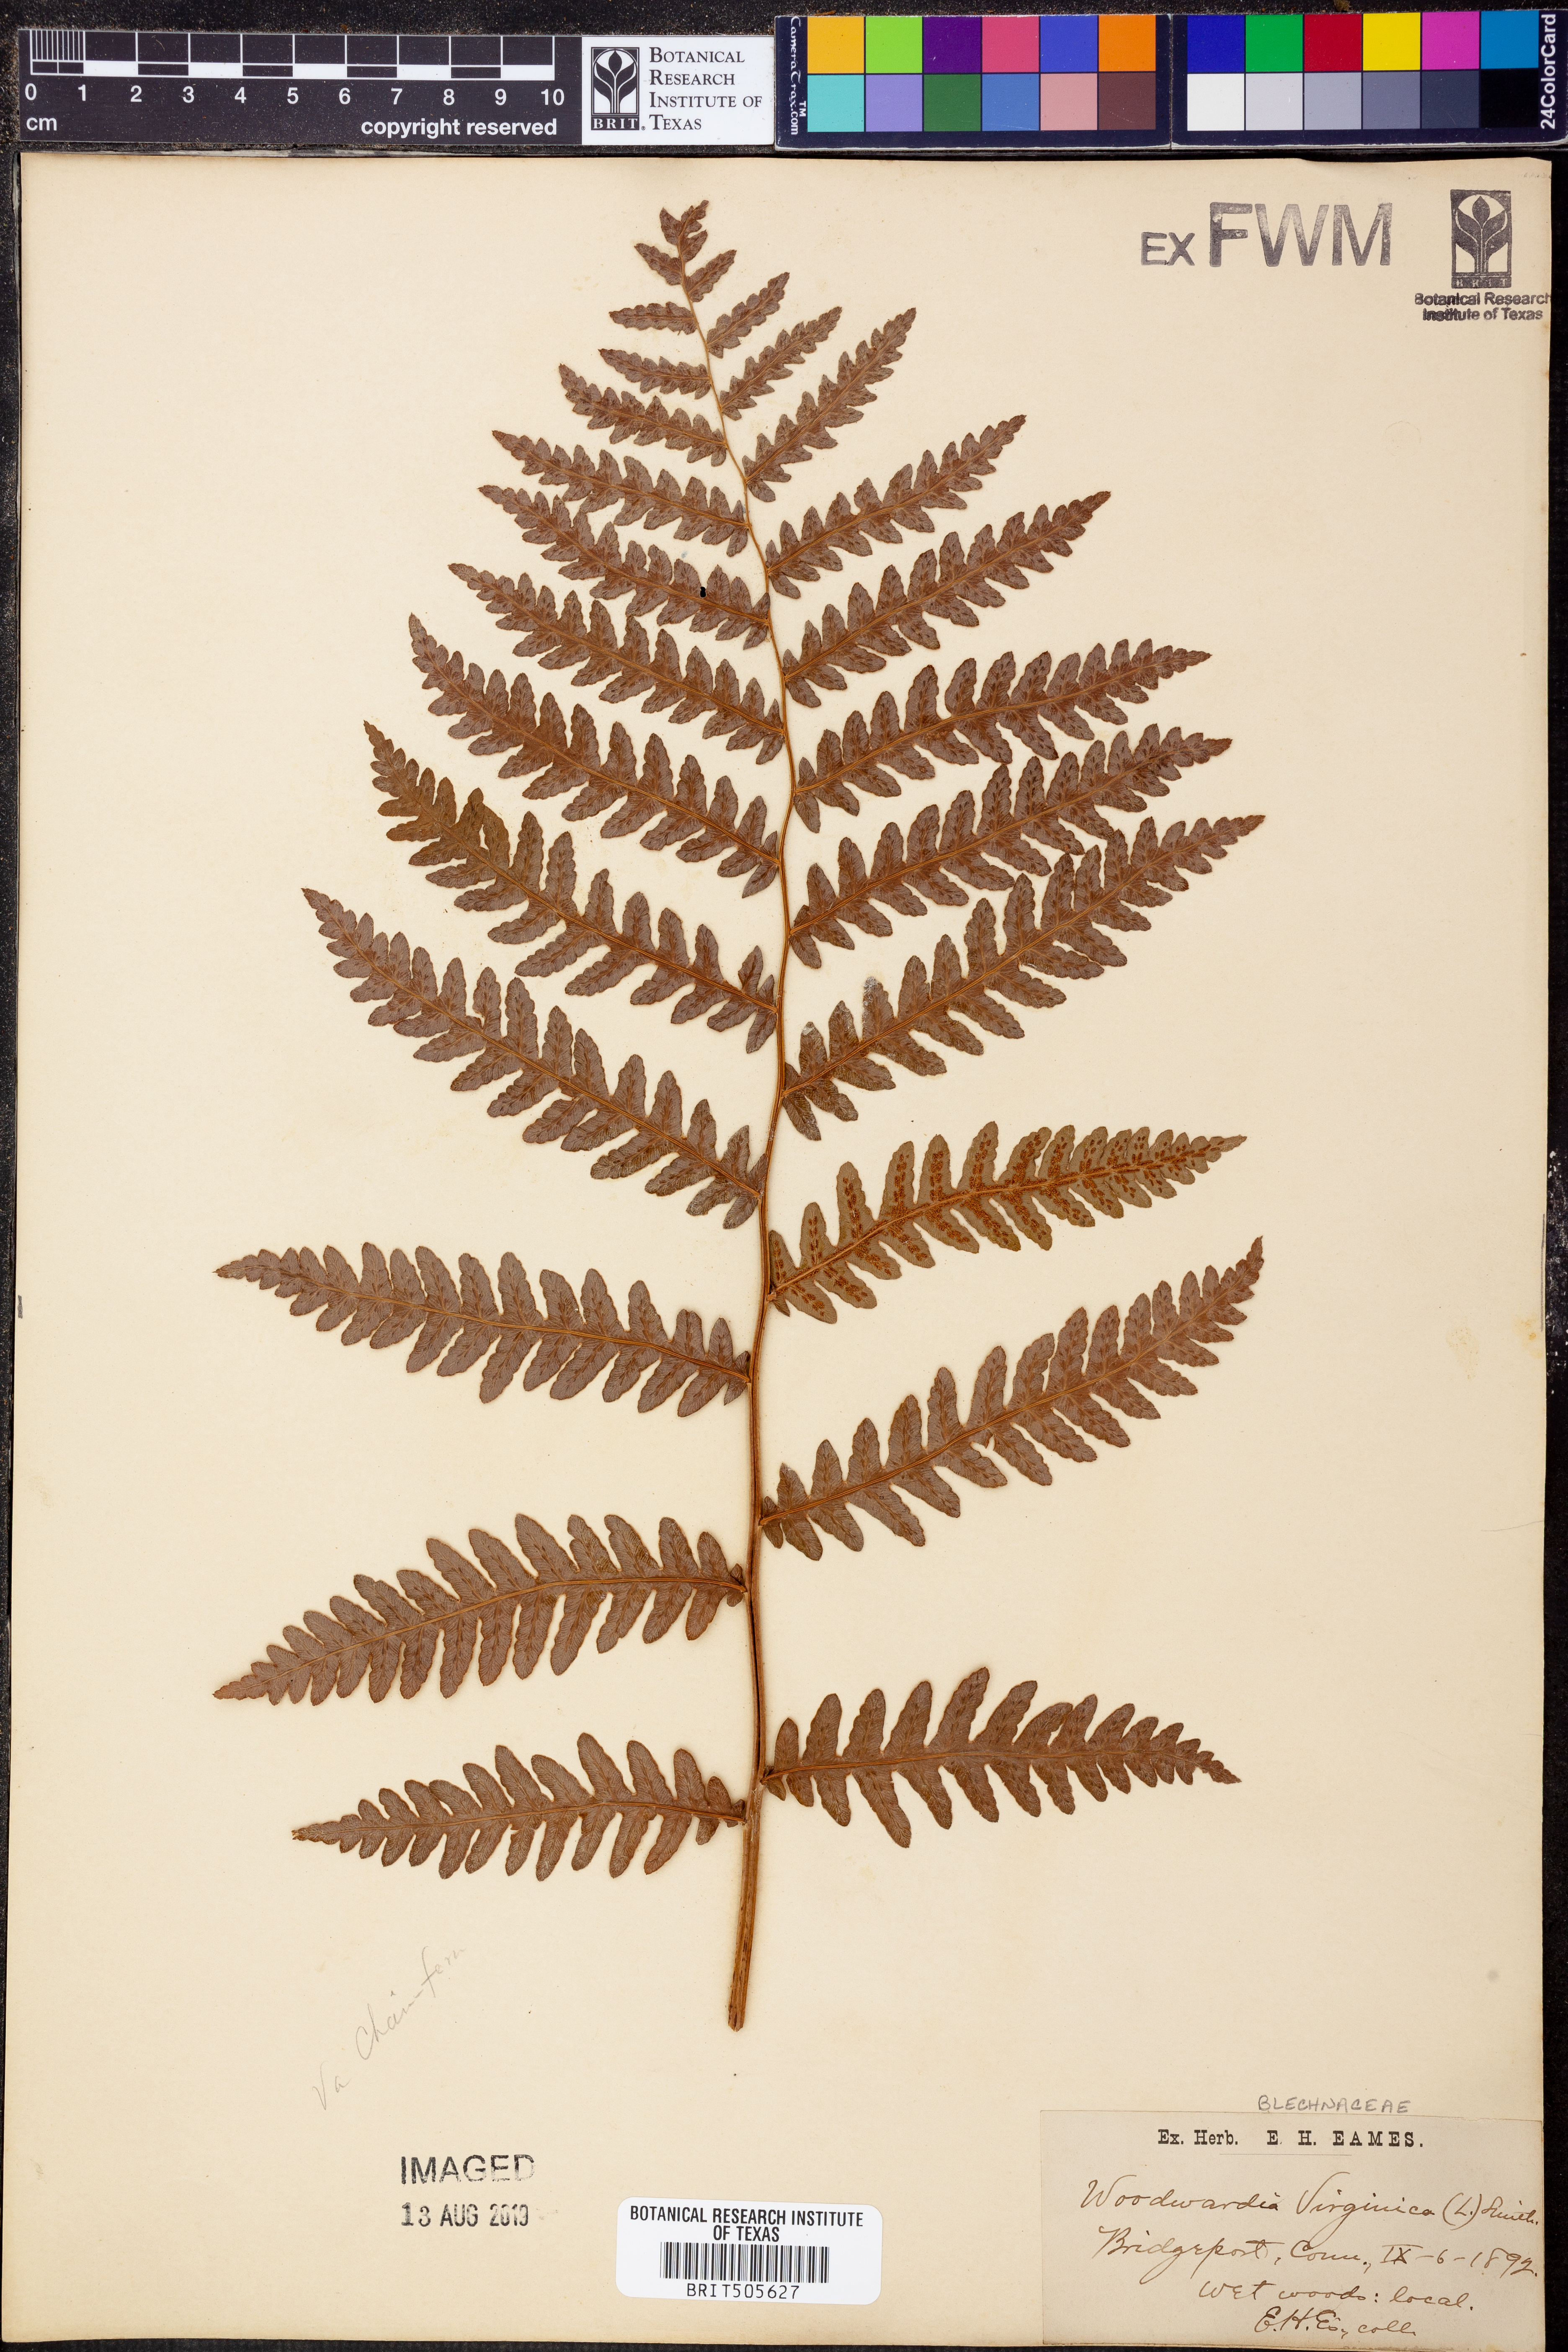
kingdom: Plantae
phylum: Tracheophyta
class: Polypodiopsida
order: Polypodiales
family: Blechnaceae
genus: Anchistea
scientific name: Anchistea virginica
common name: Virginia chain fern
